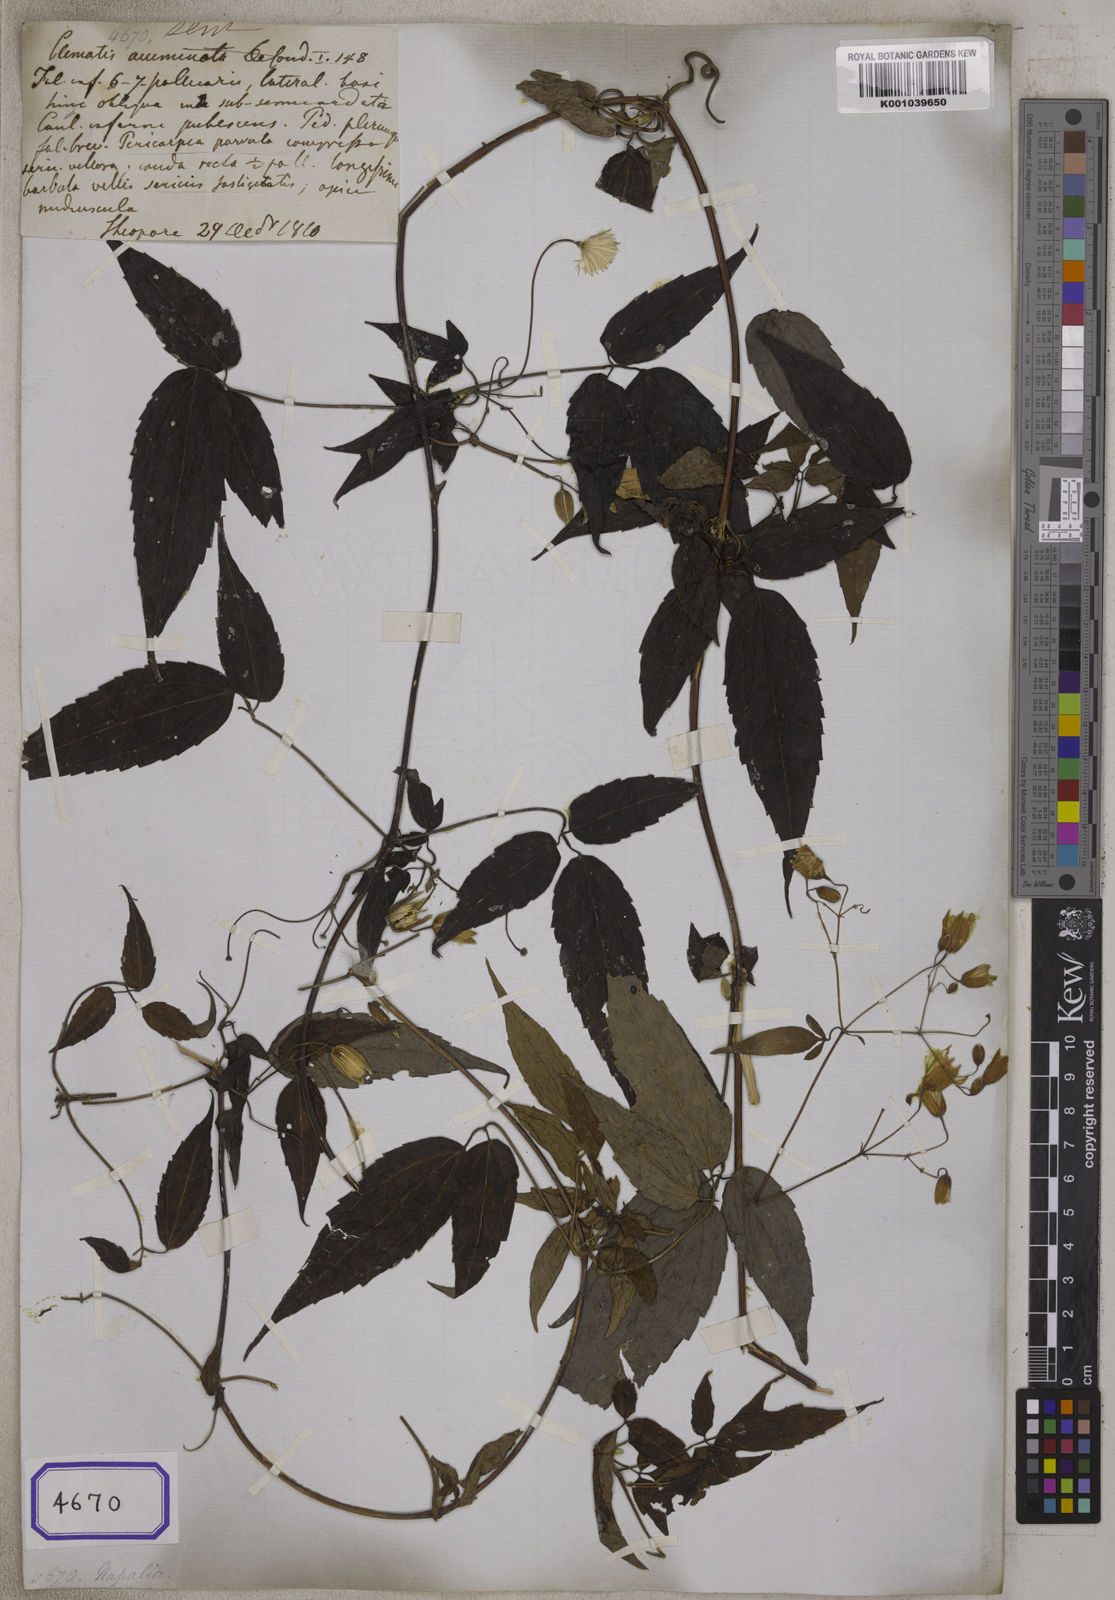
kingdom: Plantae
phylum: Tracheophyta
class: Magnoliopsida
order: Ranunculales
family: Ranunculaceae
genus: Clematis
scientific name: Clematis acuminata
